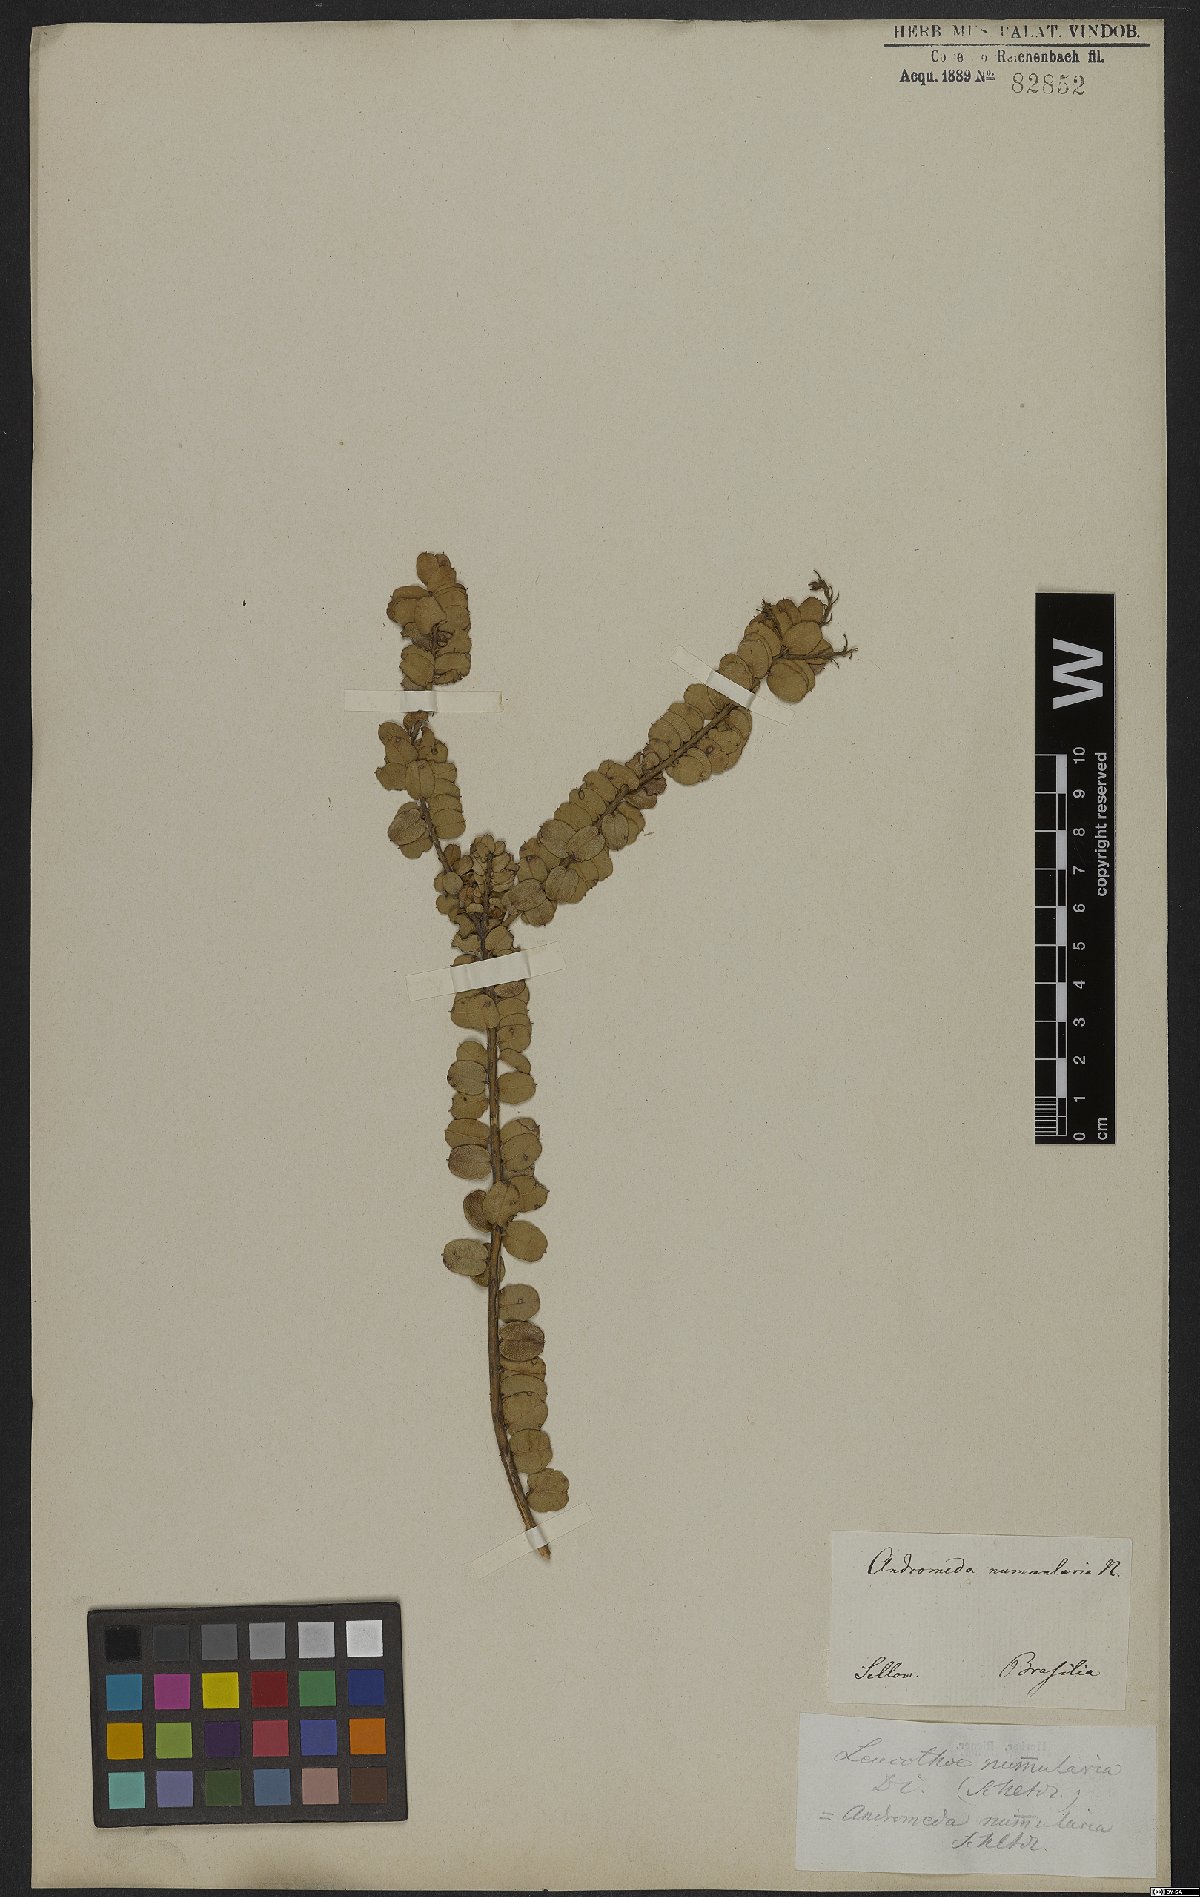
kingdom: Plantae
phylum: Tracheophyta
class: Magnoliopsida
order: Ericales
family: Ericaceae
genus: Agarista
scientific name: Agarista nummularia
